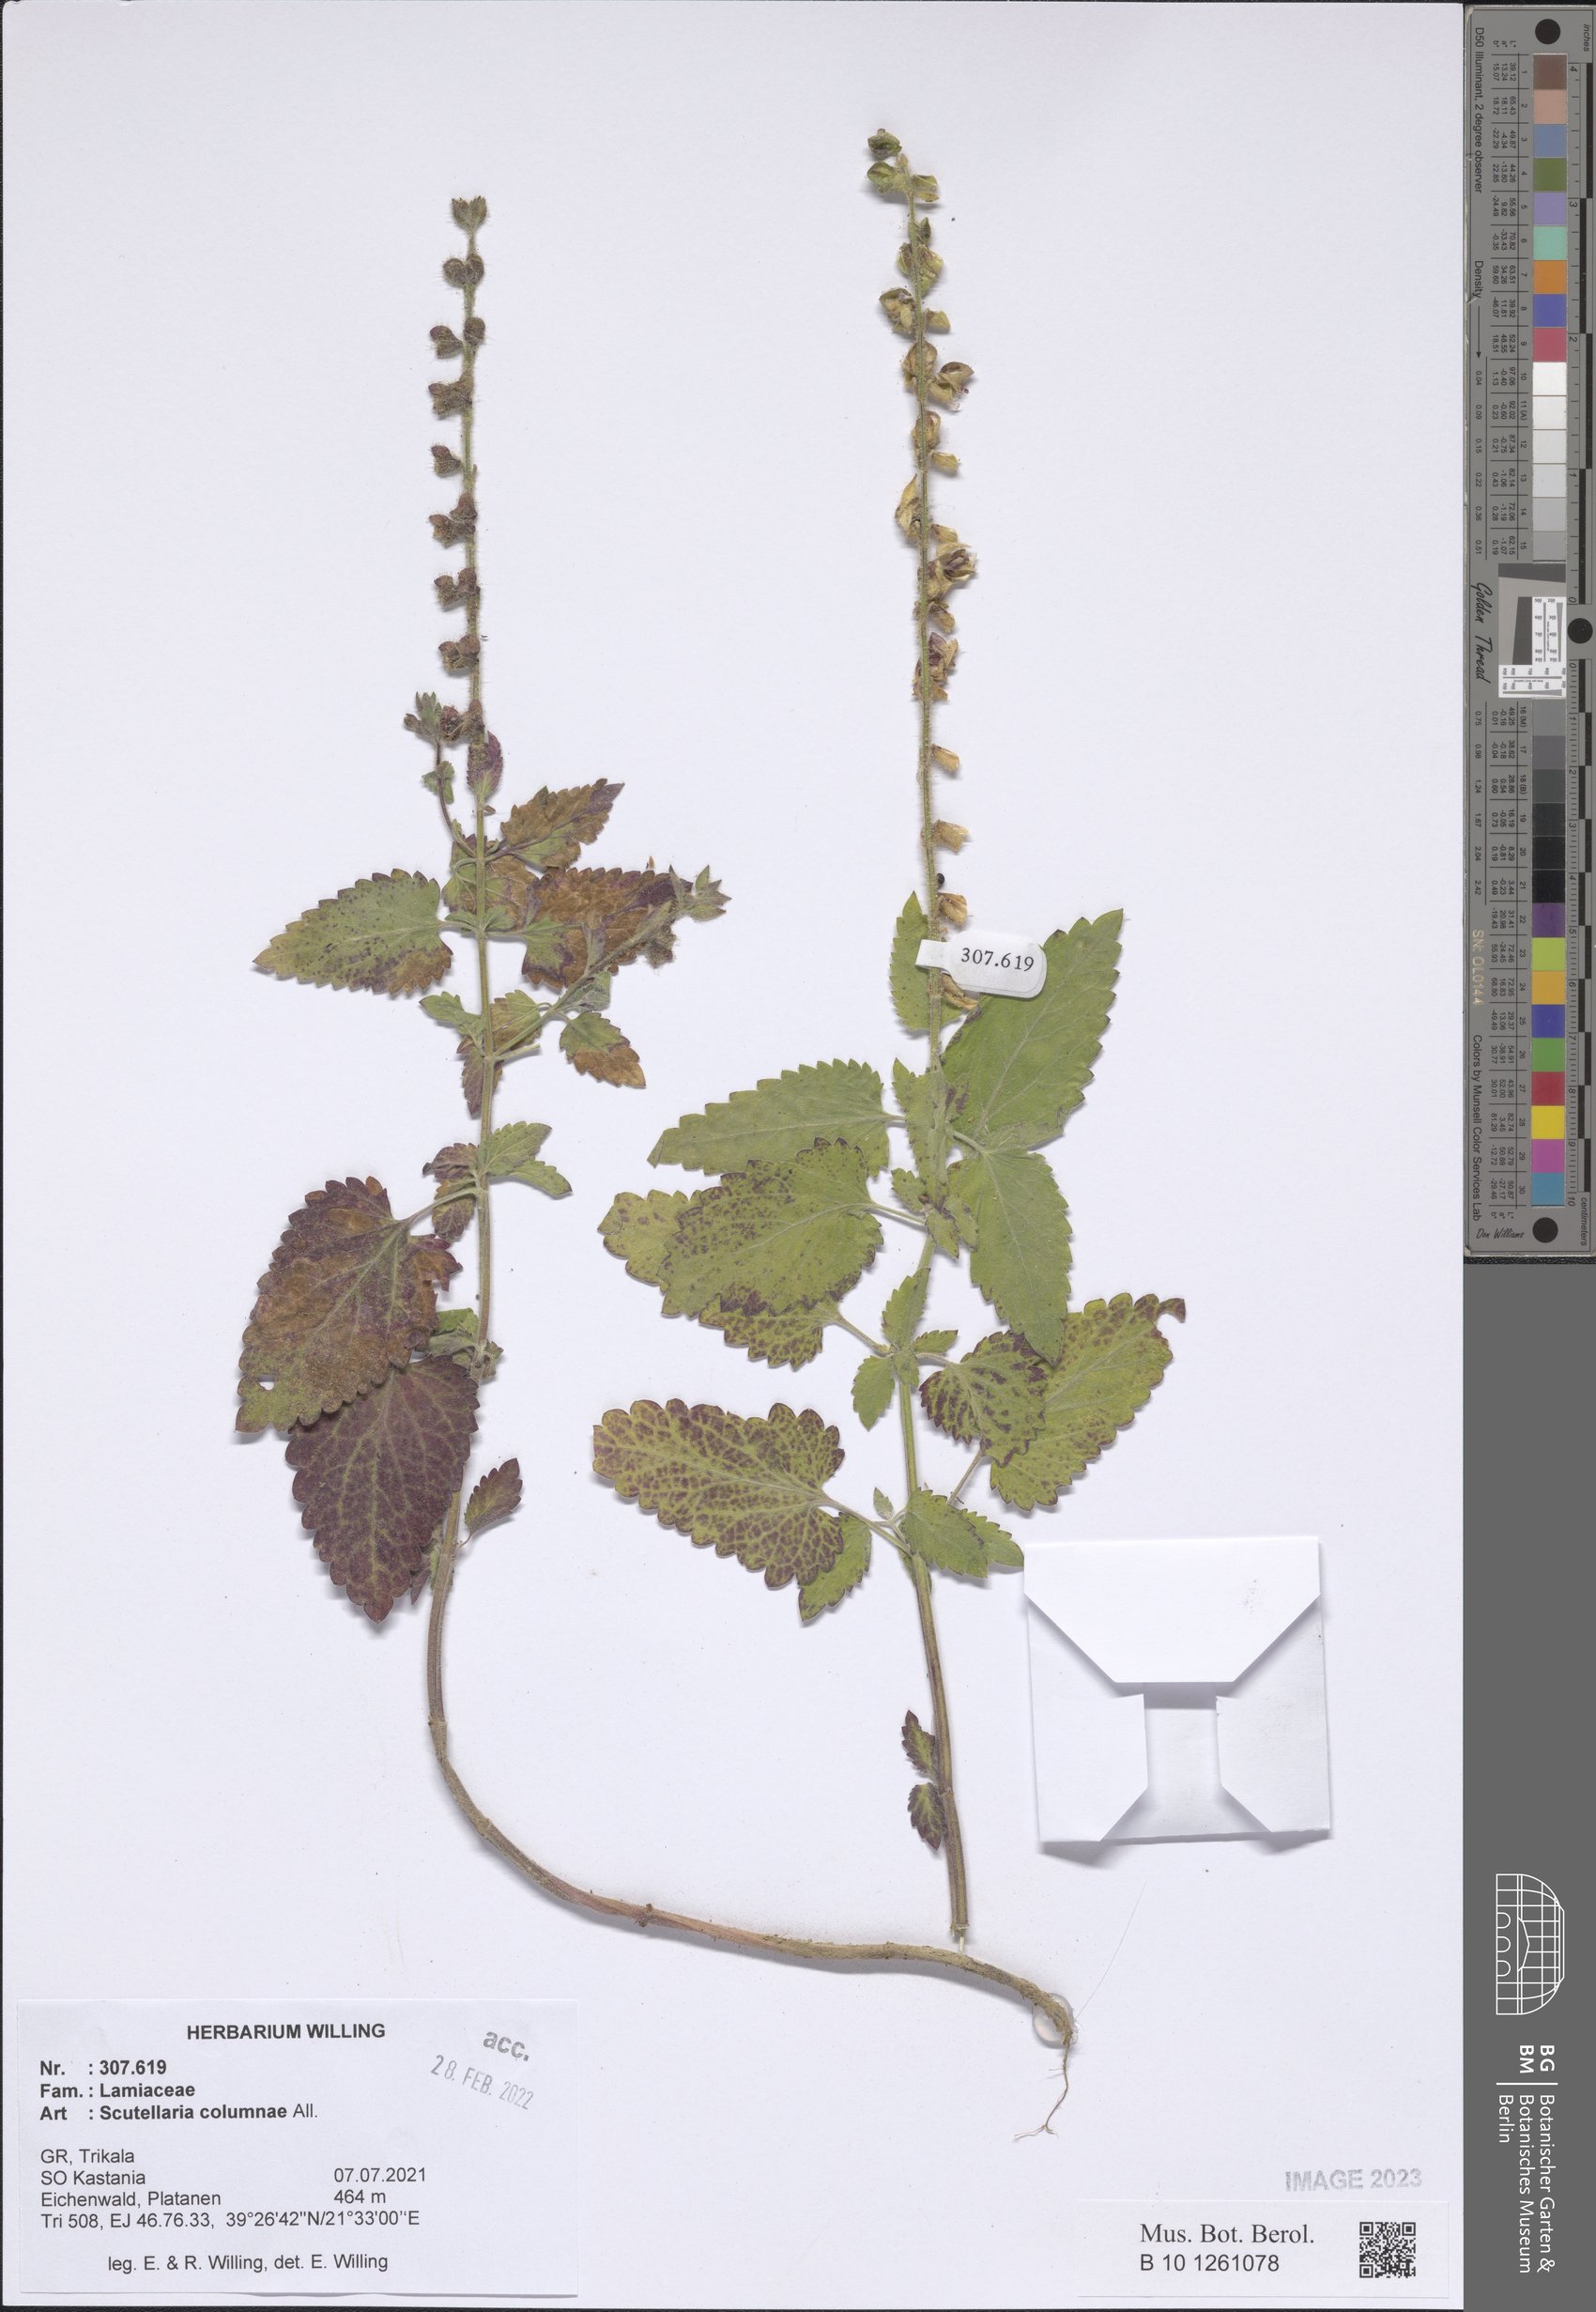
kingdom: Plantae
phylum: Tracheophyta
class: Magnoliopsida
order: Lamiales
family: Lamiaceae
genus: Scutellaria
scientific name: Scutellaria columnae
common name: Large skullcap
